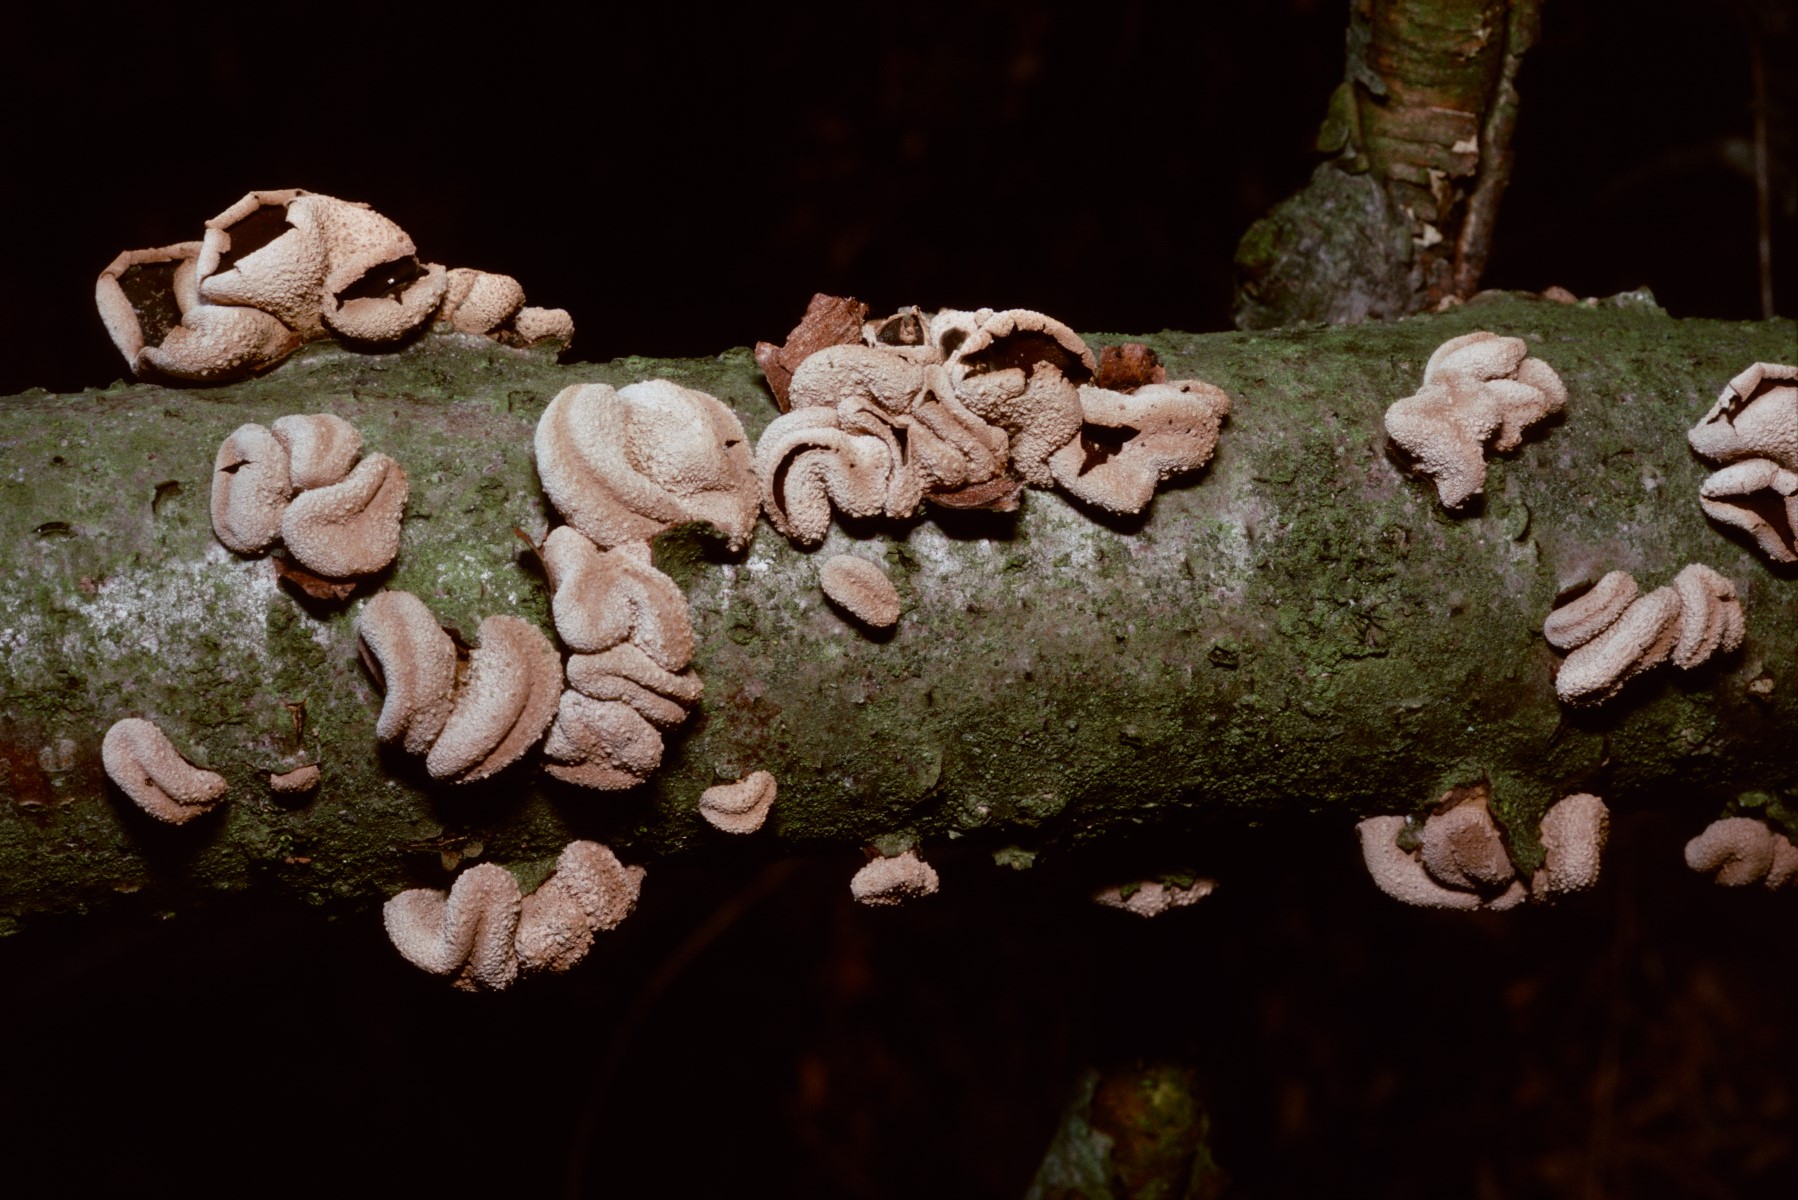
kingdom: Fungi
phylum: Ascomycota
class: Leotiomycetes
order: Helotiales
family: Cenangiaceae
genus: Encoelia
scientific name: Encoelia furfuracea
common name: hassel-læderskive
